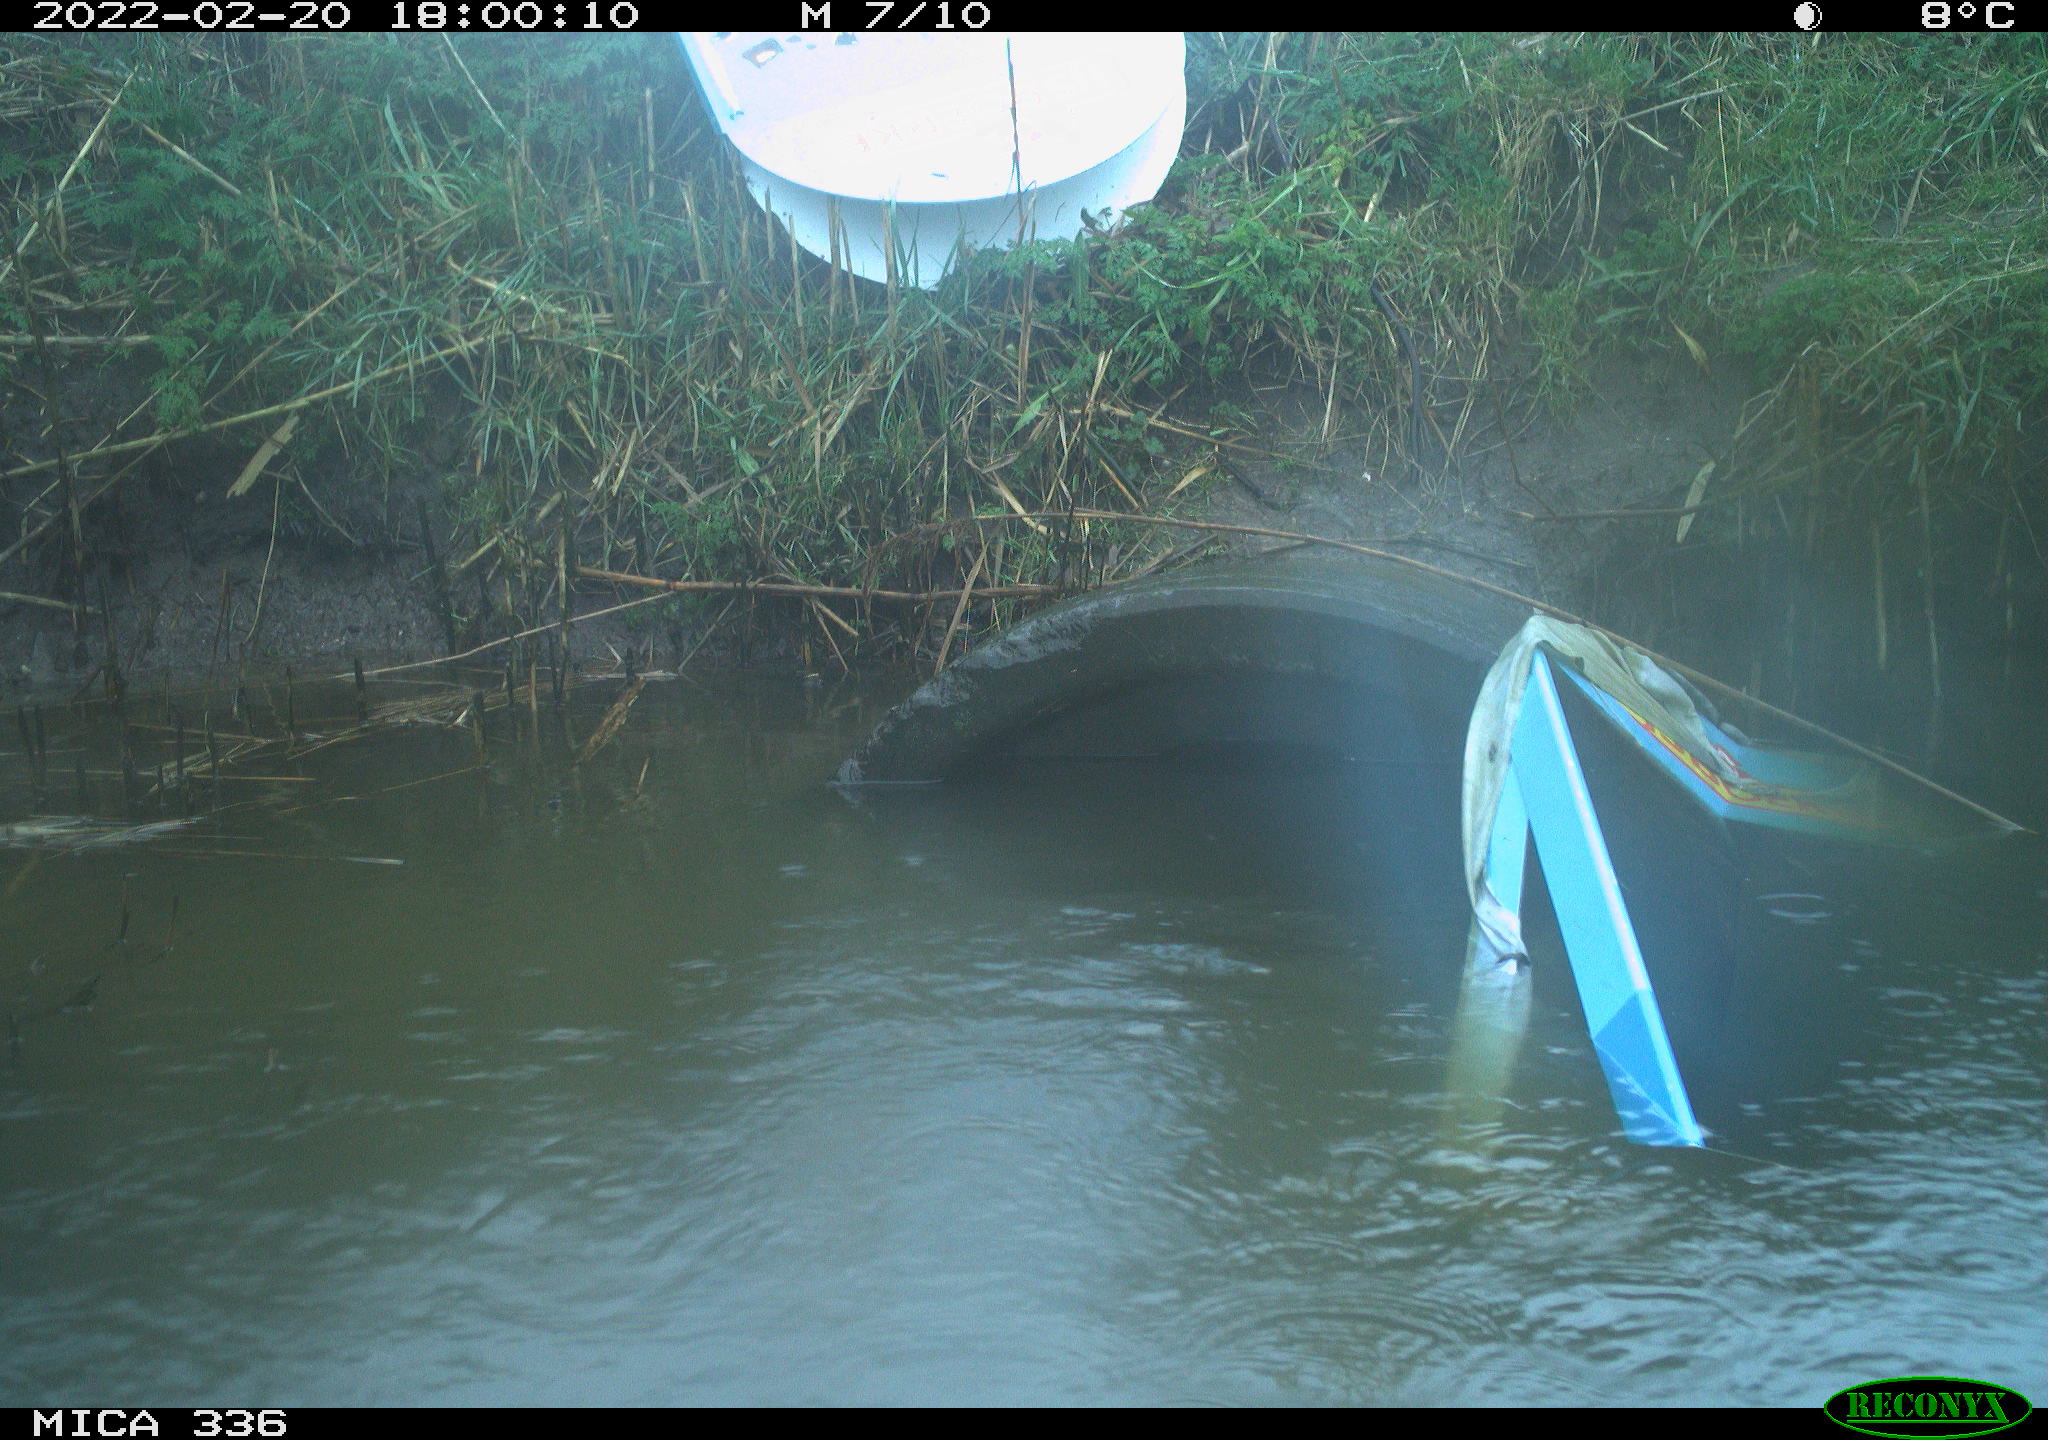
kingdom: Animalia
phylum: Chordata
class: Aves
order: Gruiformes
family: Rallidae
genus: Gallinula
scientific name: Gallinula chloropus
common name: Common moorhen
